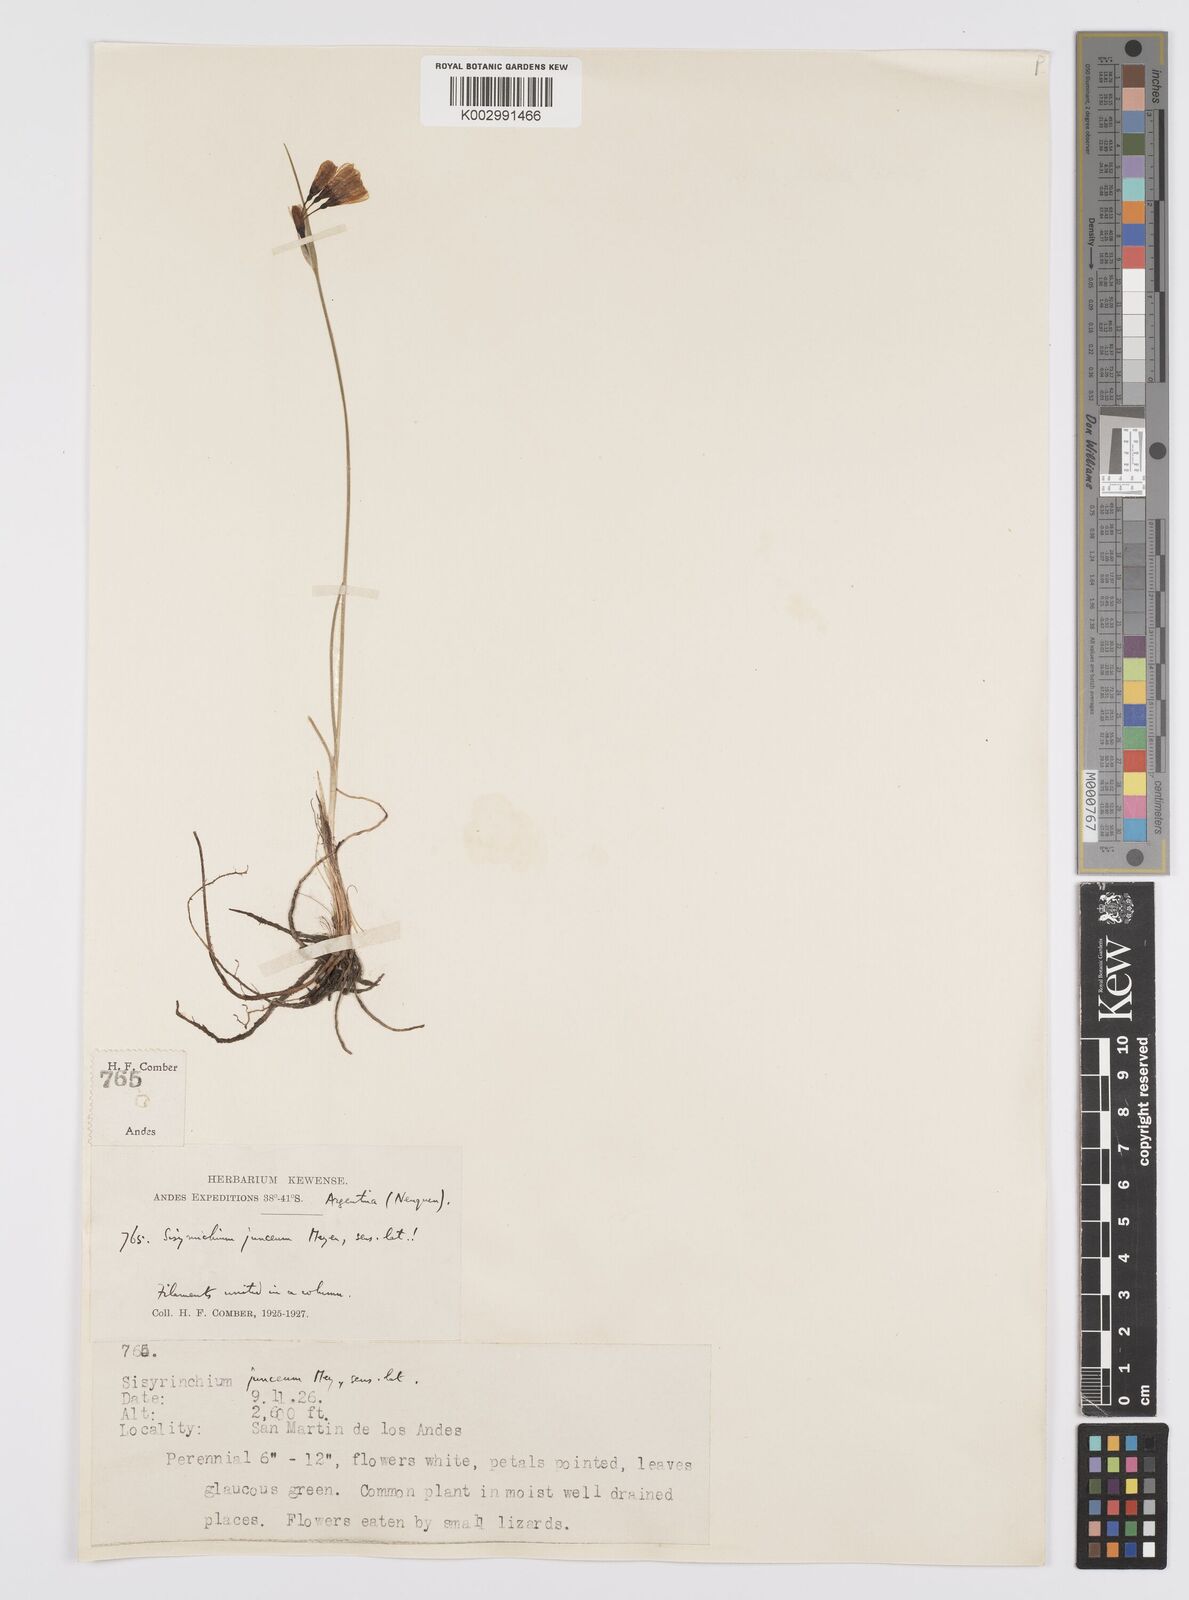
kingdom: Plantae
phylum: Tracheophyta
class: Liliopsida
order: Asparagales
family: Iridaceae
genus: Olsynium
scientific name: Olsynium junceum
